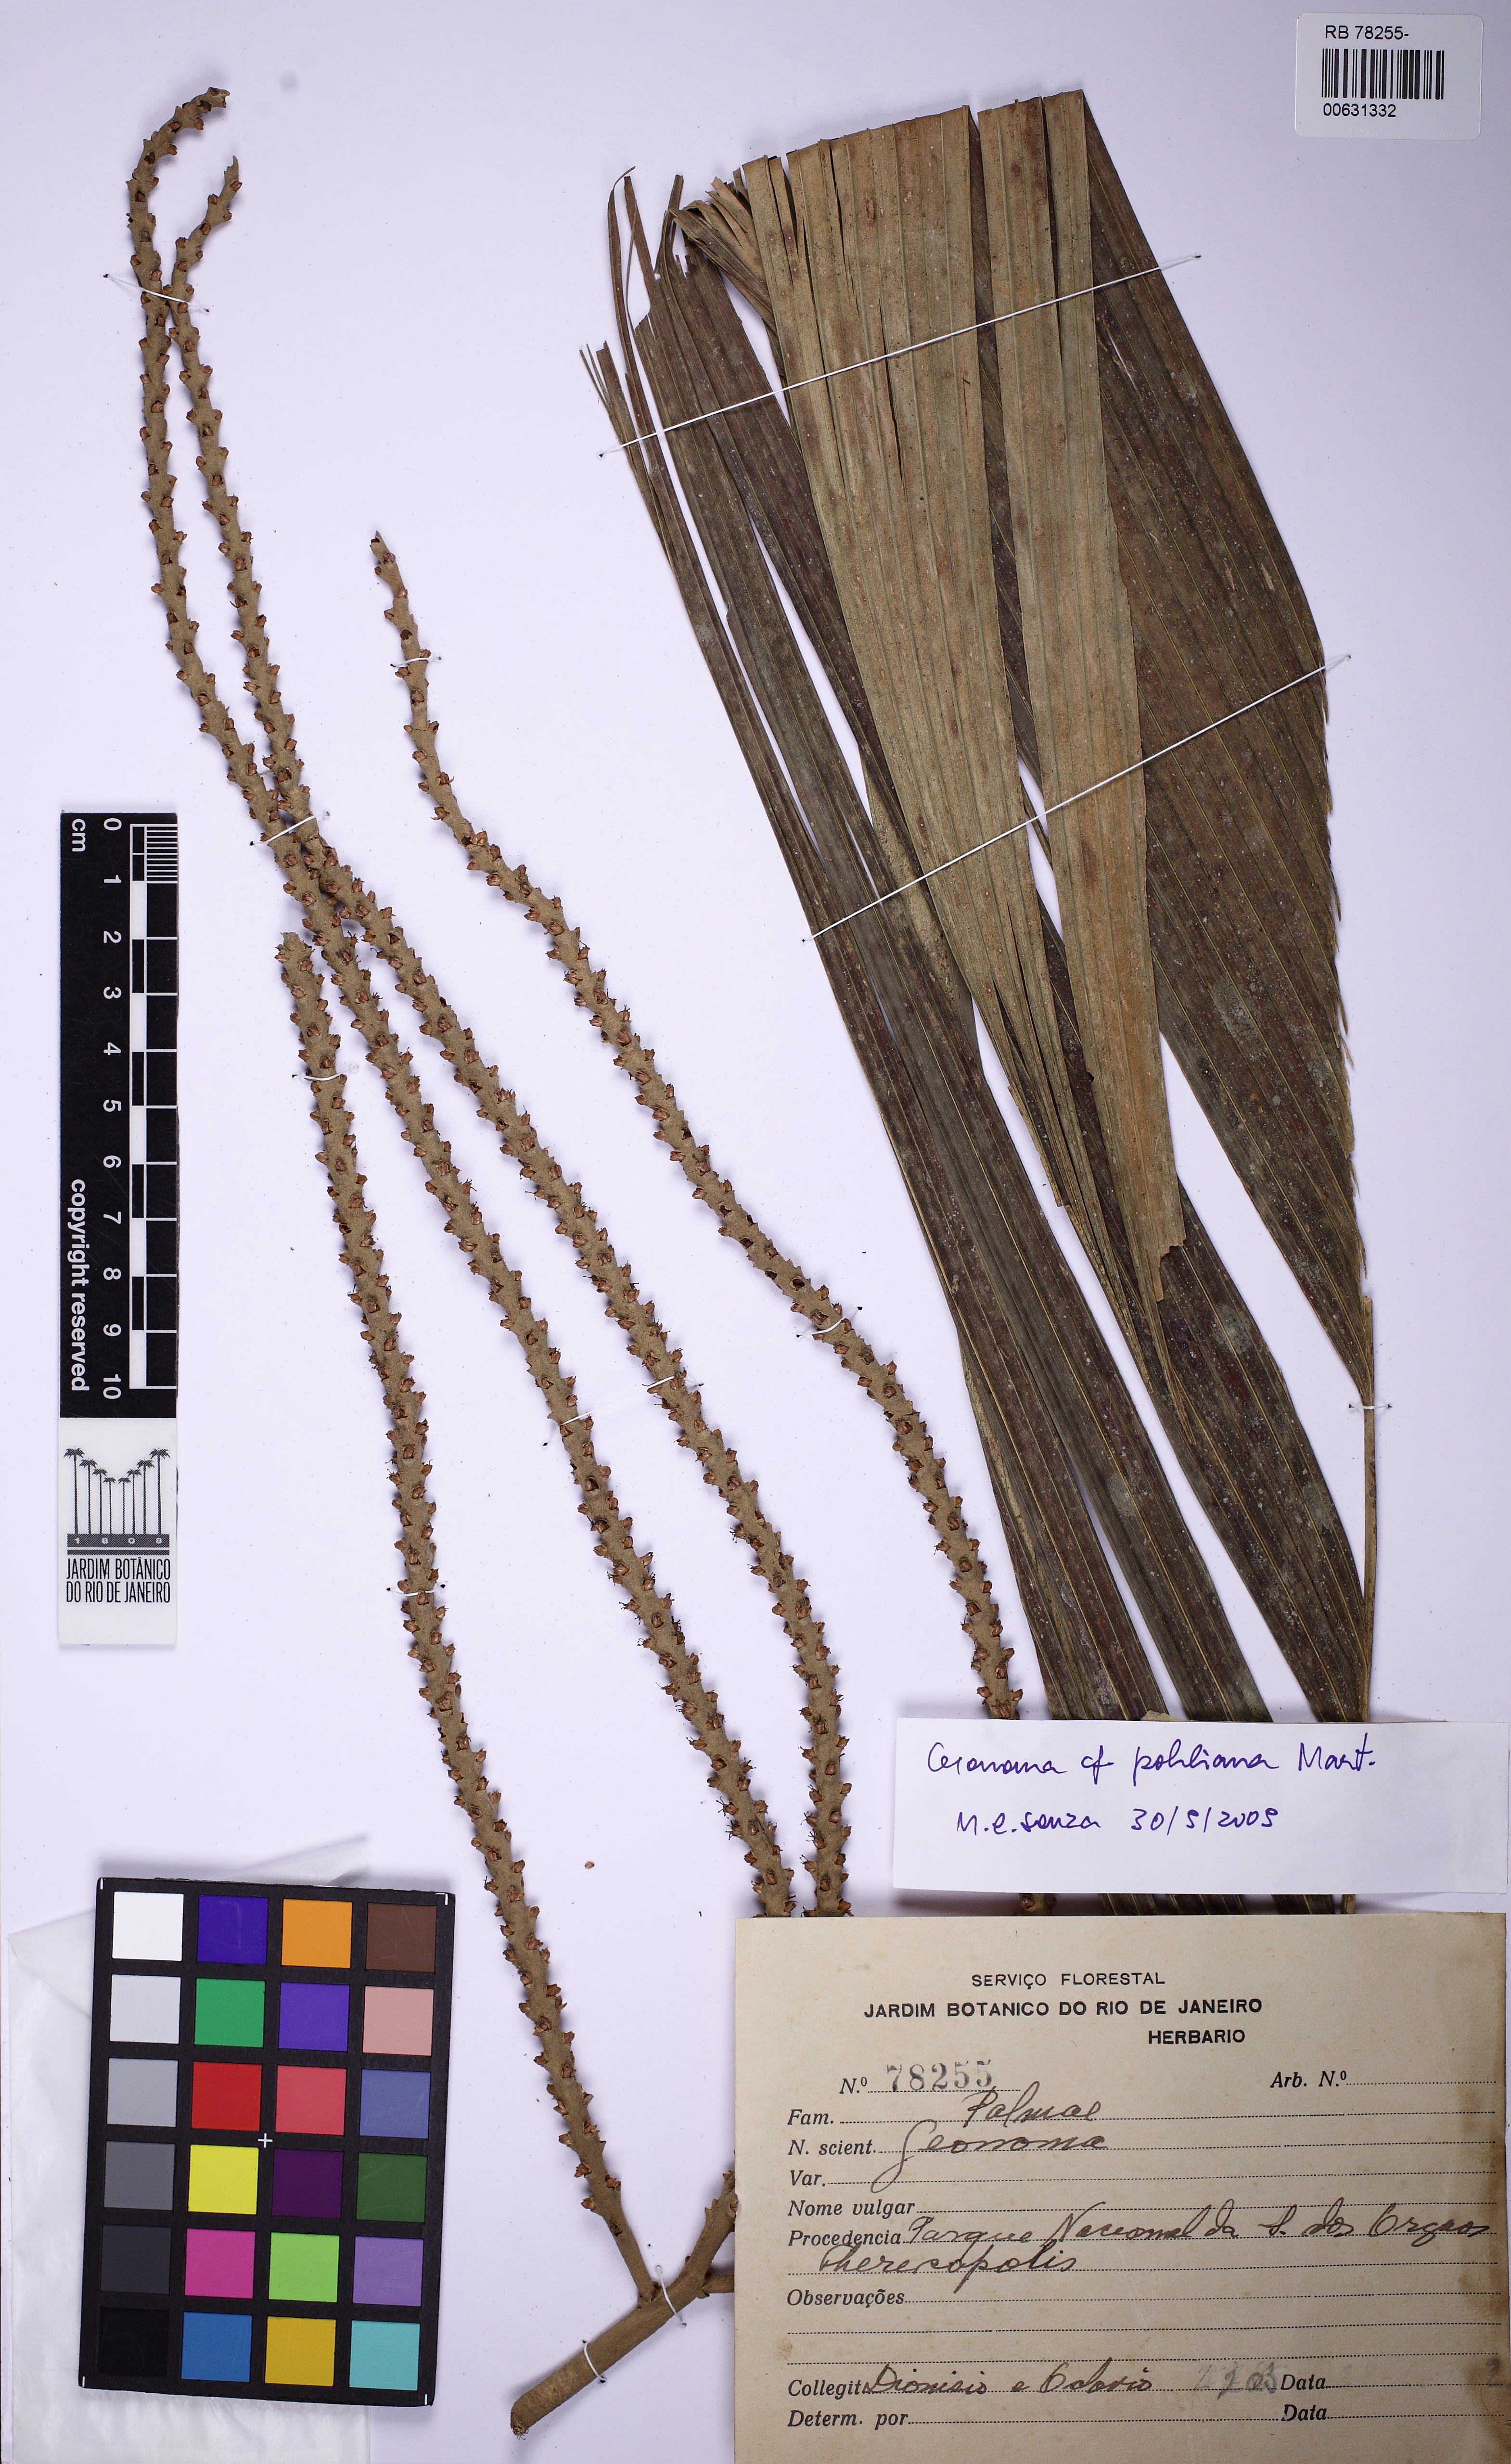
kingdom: Plantae
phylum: Tracheophyta
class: Liliopsida
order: Arecales
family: Arecaceae
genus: Geonoma
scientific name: Geonoma pohliana
